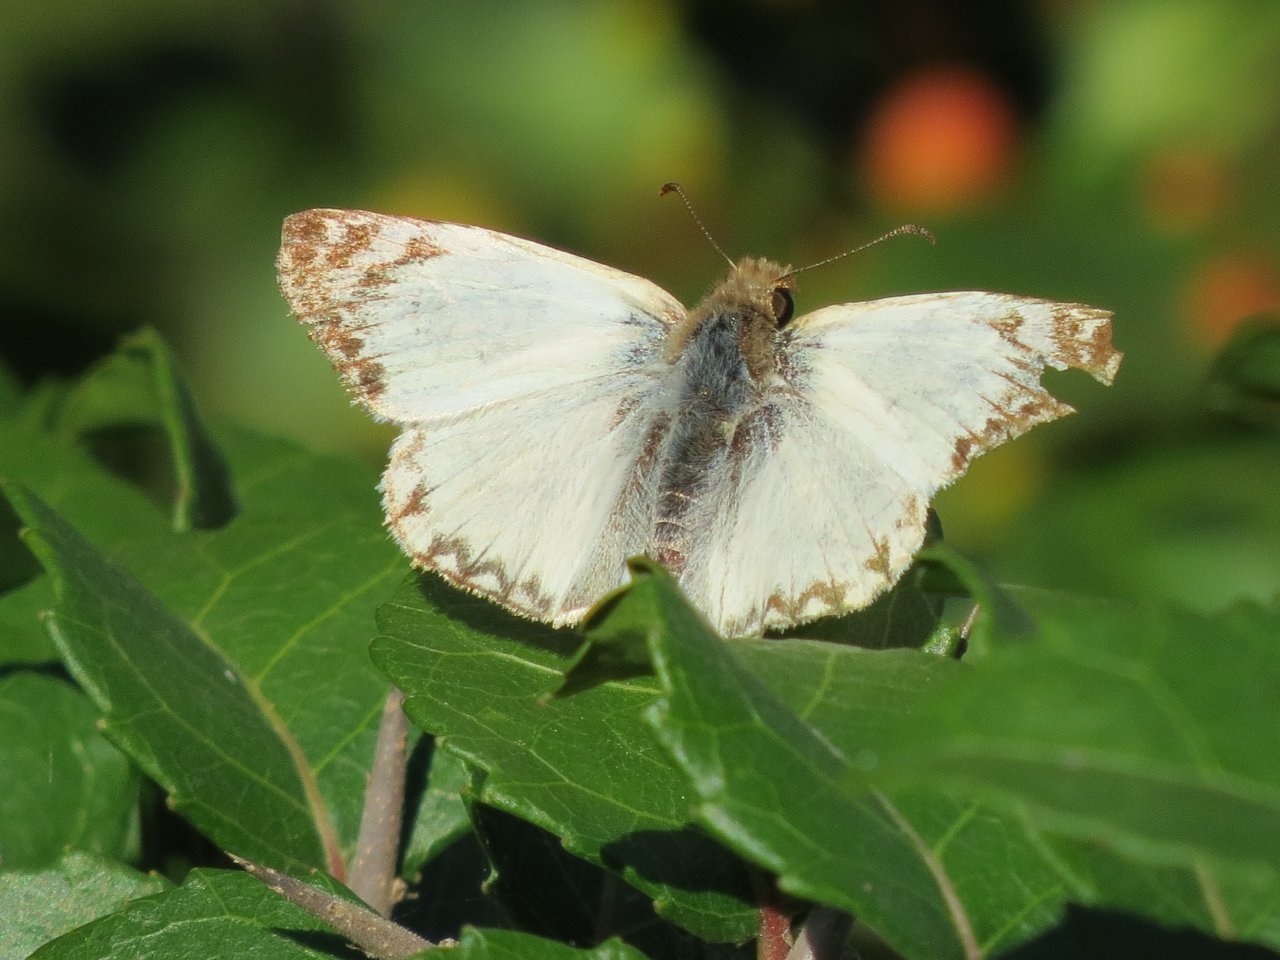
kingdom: Animalia
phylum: Arthropoda
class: Insecta
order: Lepidoptera
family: Hesperiidae
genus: Heliopetes
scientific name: Heliopetes laviana
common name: Laviana White-Skipper
